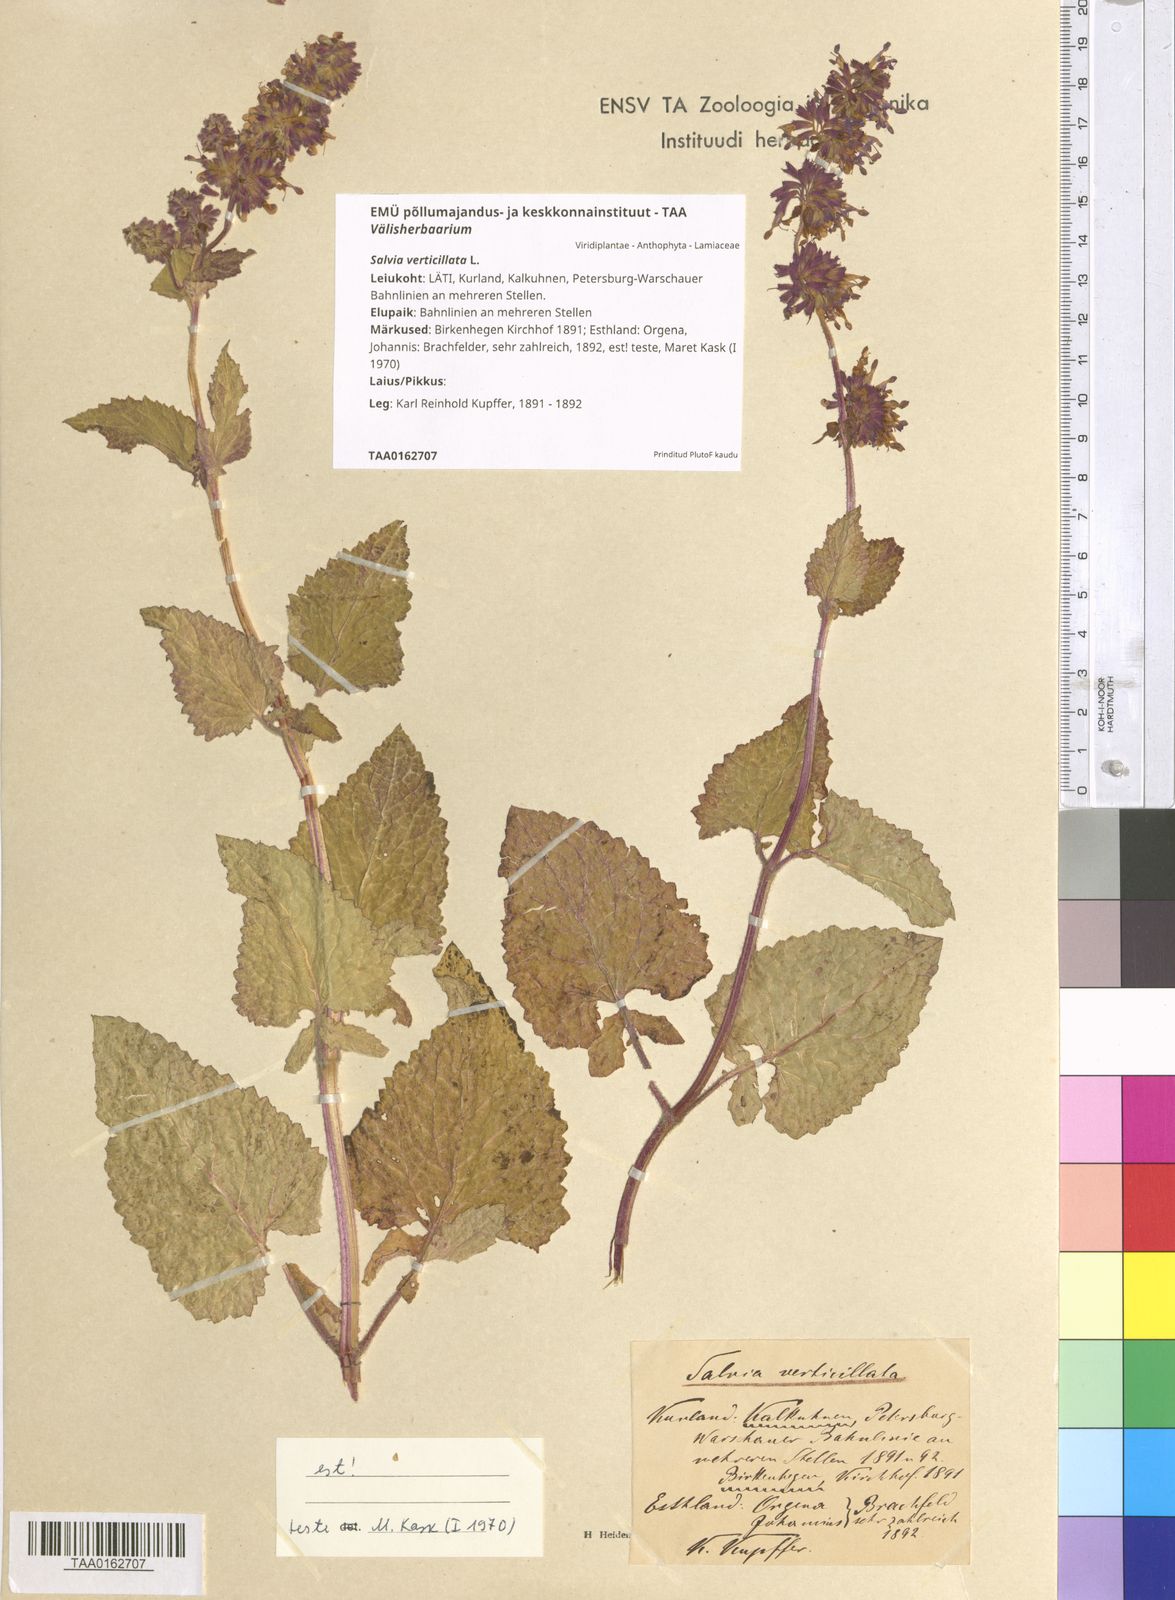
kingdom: Plantae
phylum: Tracheophyta
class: Magnoliopsida
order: Lamiales
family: Lamiaceae
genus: Salvia
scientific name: Salvia verticillata
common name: Whorled clary
